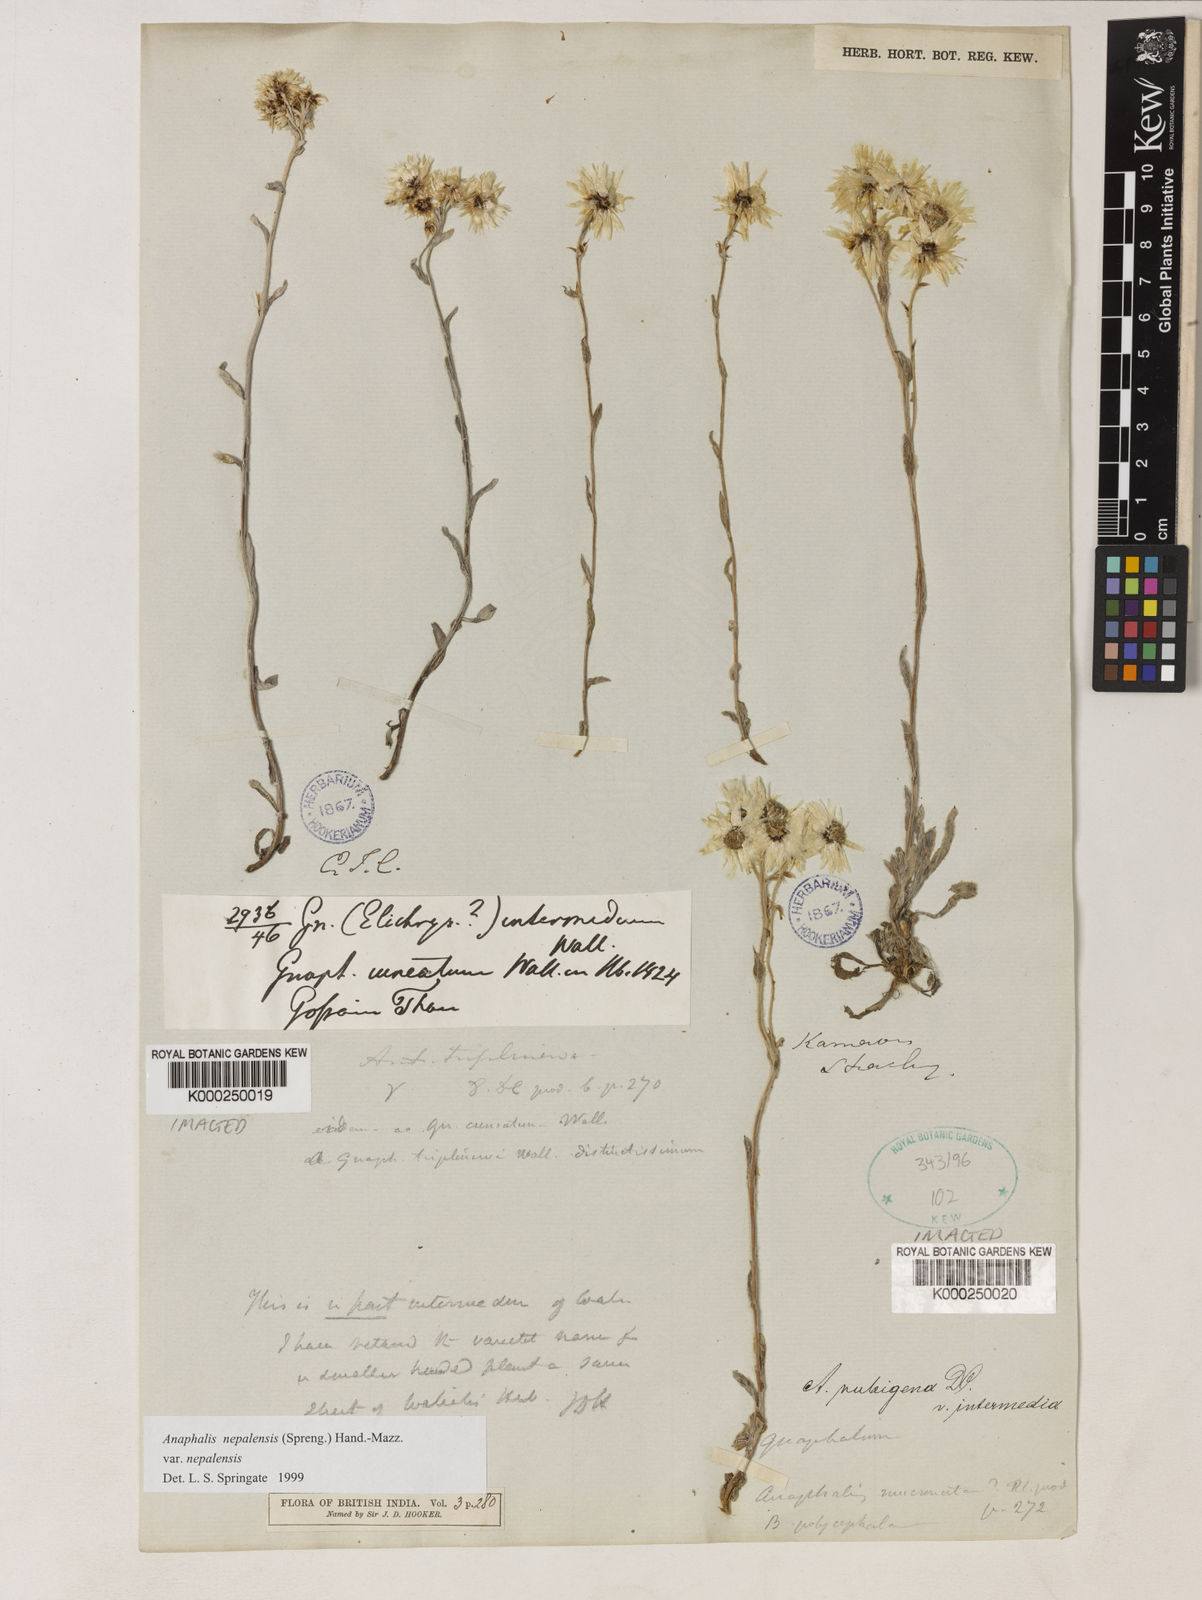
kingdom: Plantae
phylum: Tracheophyta
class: Magnoliopsida
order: Asterales
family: Asteraceae
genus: Anaphalioides
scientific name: Anaphalioides trinervis
